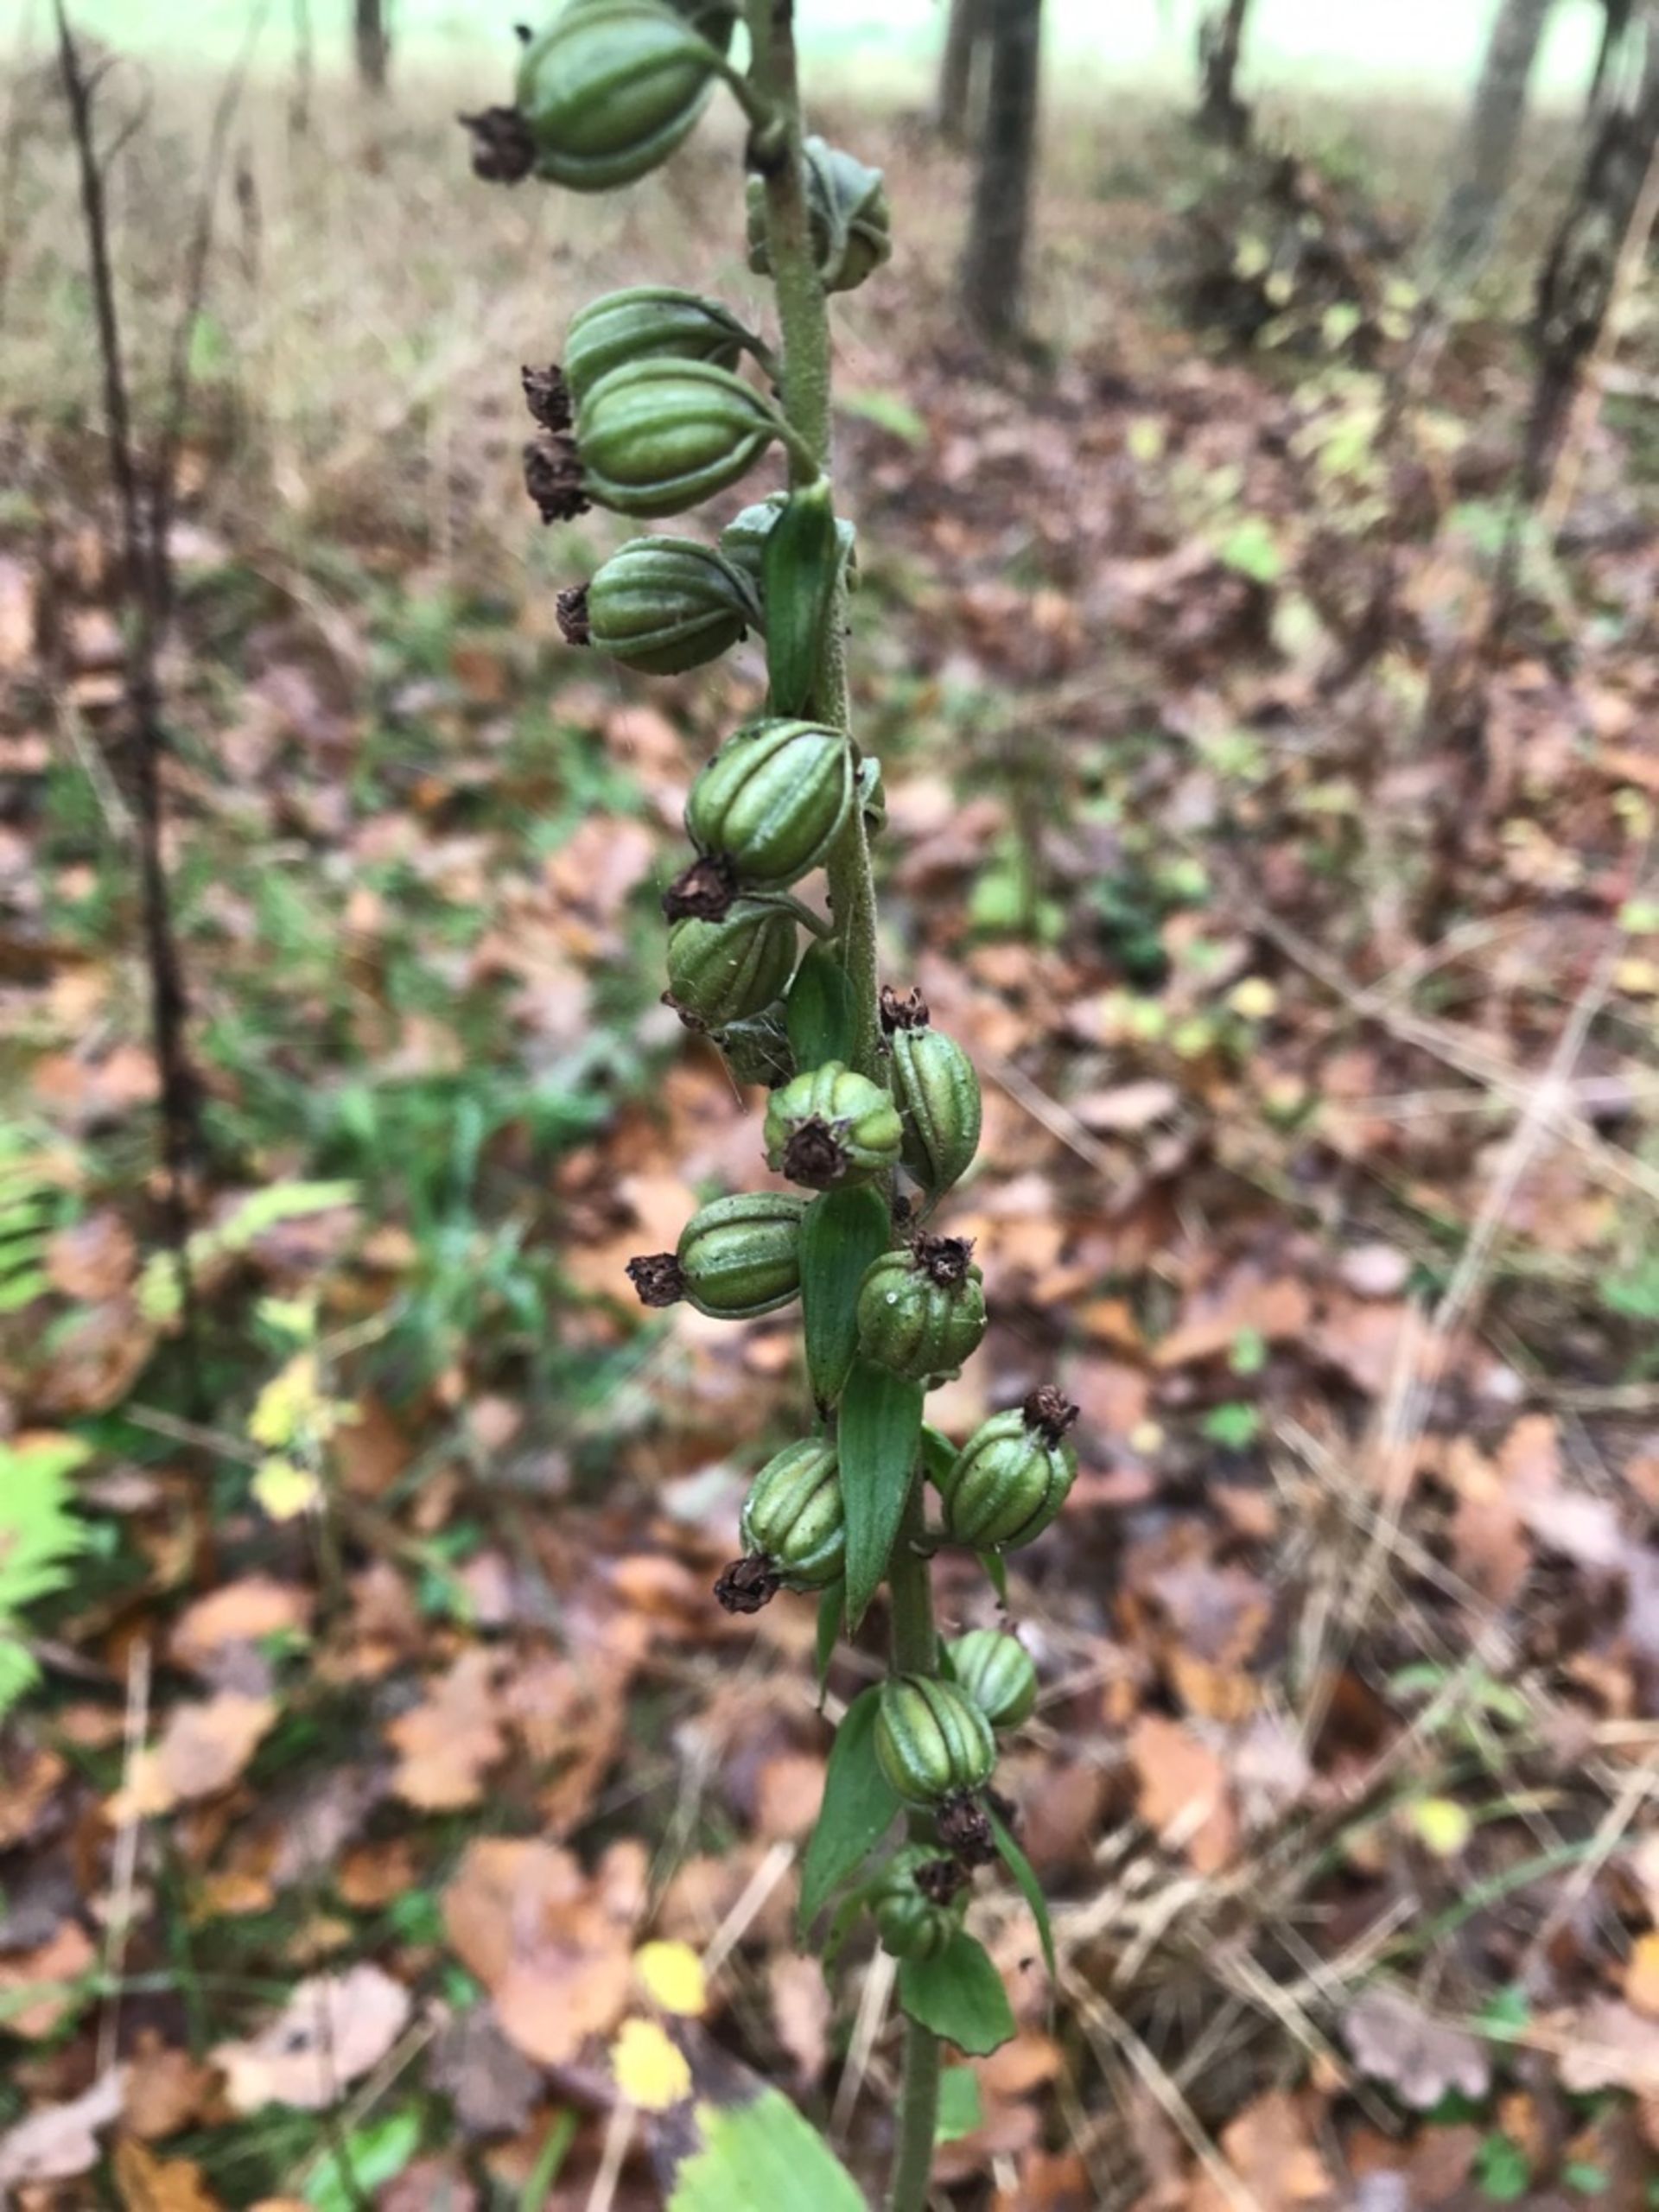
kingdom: Plantae
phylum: Tracheophyta
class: Liliopsida
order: Asparagales
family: Orchidaceae
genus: Epipactis
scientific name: Epipactis helleborine
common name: Skov-hullæbe
